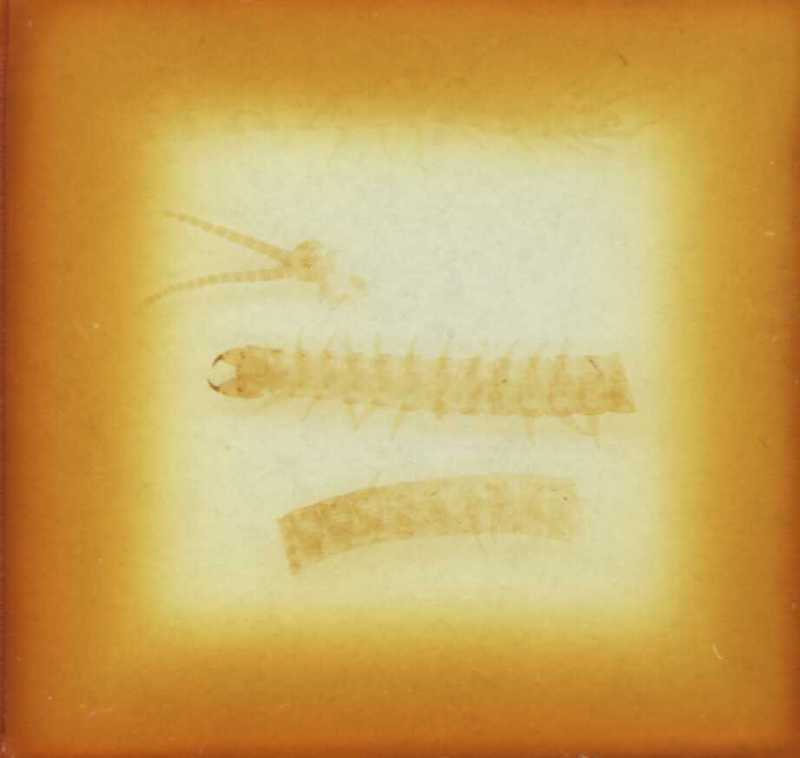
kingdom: Animalia
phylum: Arthropoda
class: Chilopoda
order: Geophilomorpha
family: Geophilidae
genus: Clinopodes
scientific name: Clinopodes flavidus
